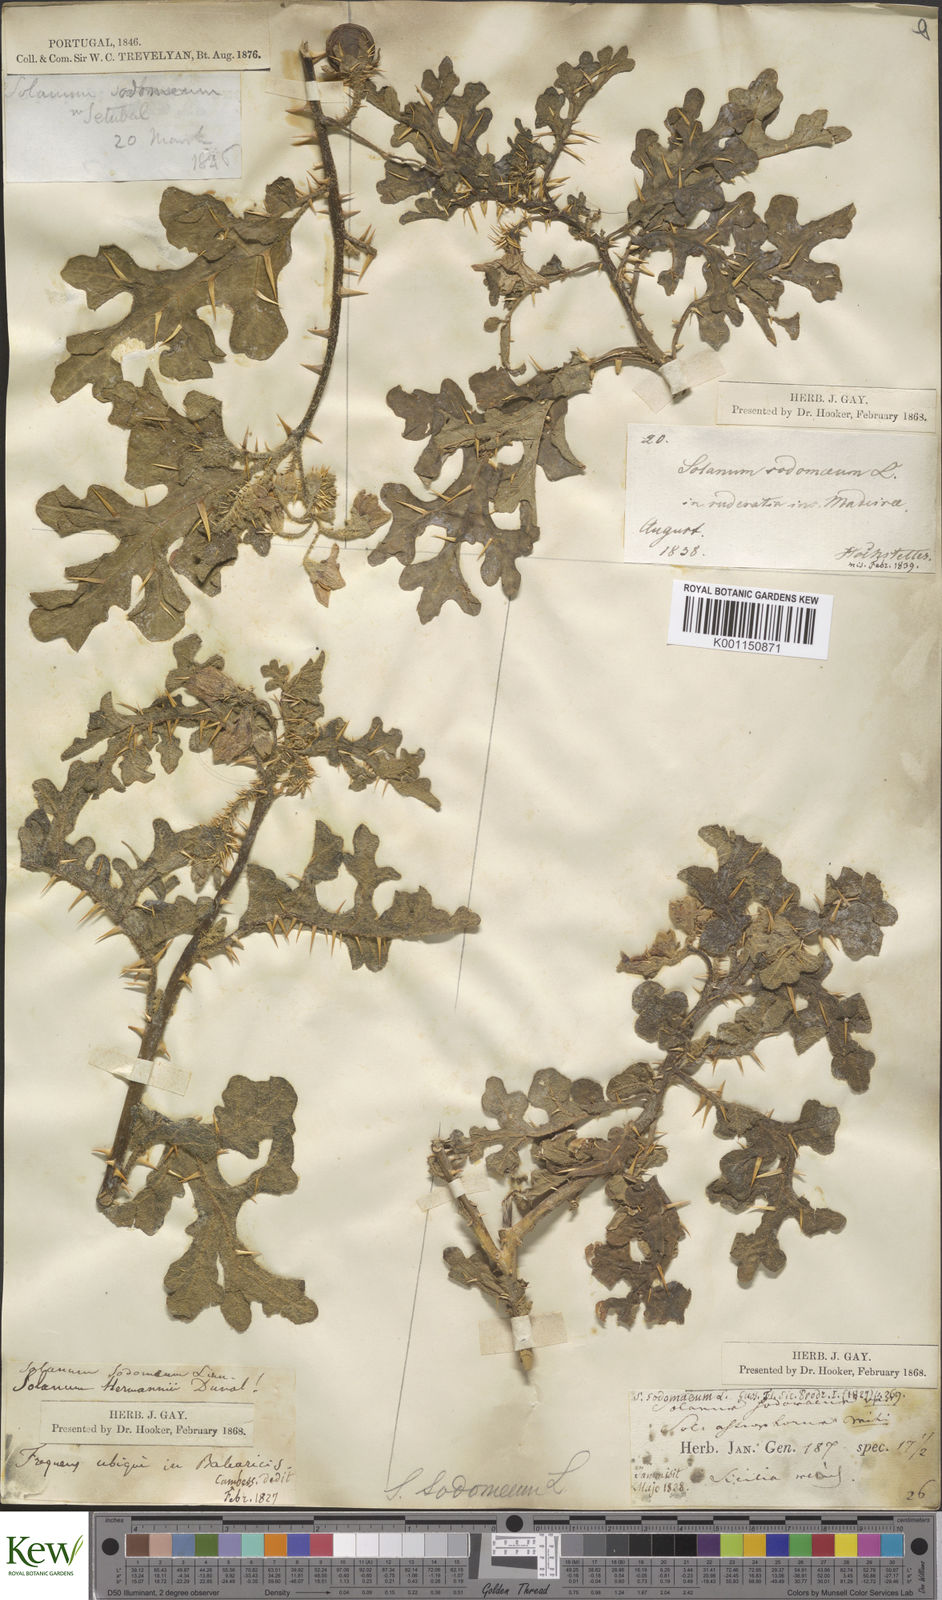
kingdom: Plantae
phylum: Tracheophyta
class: Magnoliopsida
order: Solanales
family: Solanaceae
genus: Solanum
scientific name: Solanum anguivi
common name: Forest bitterberry
